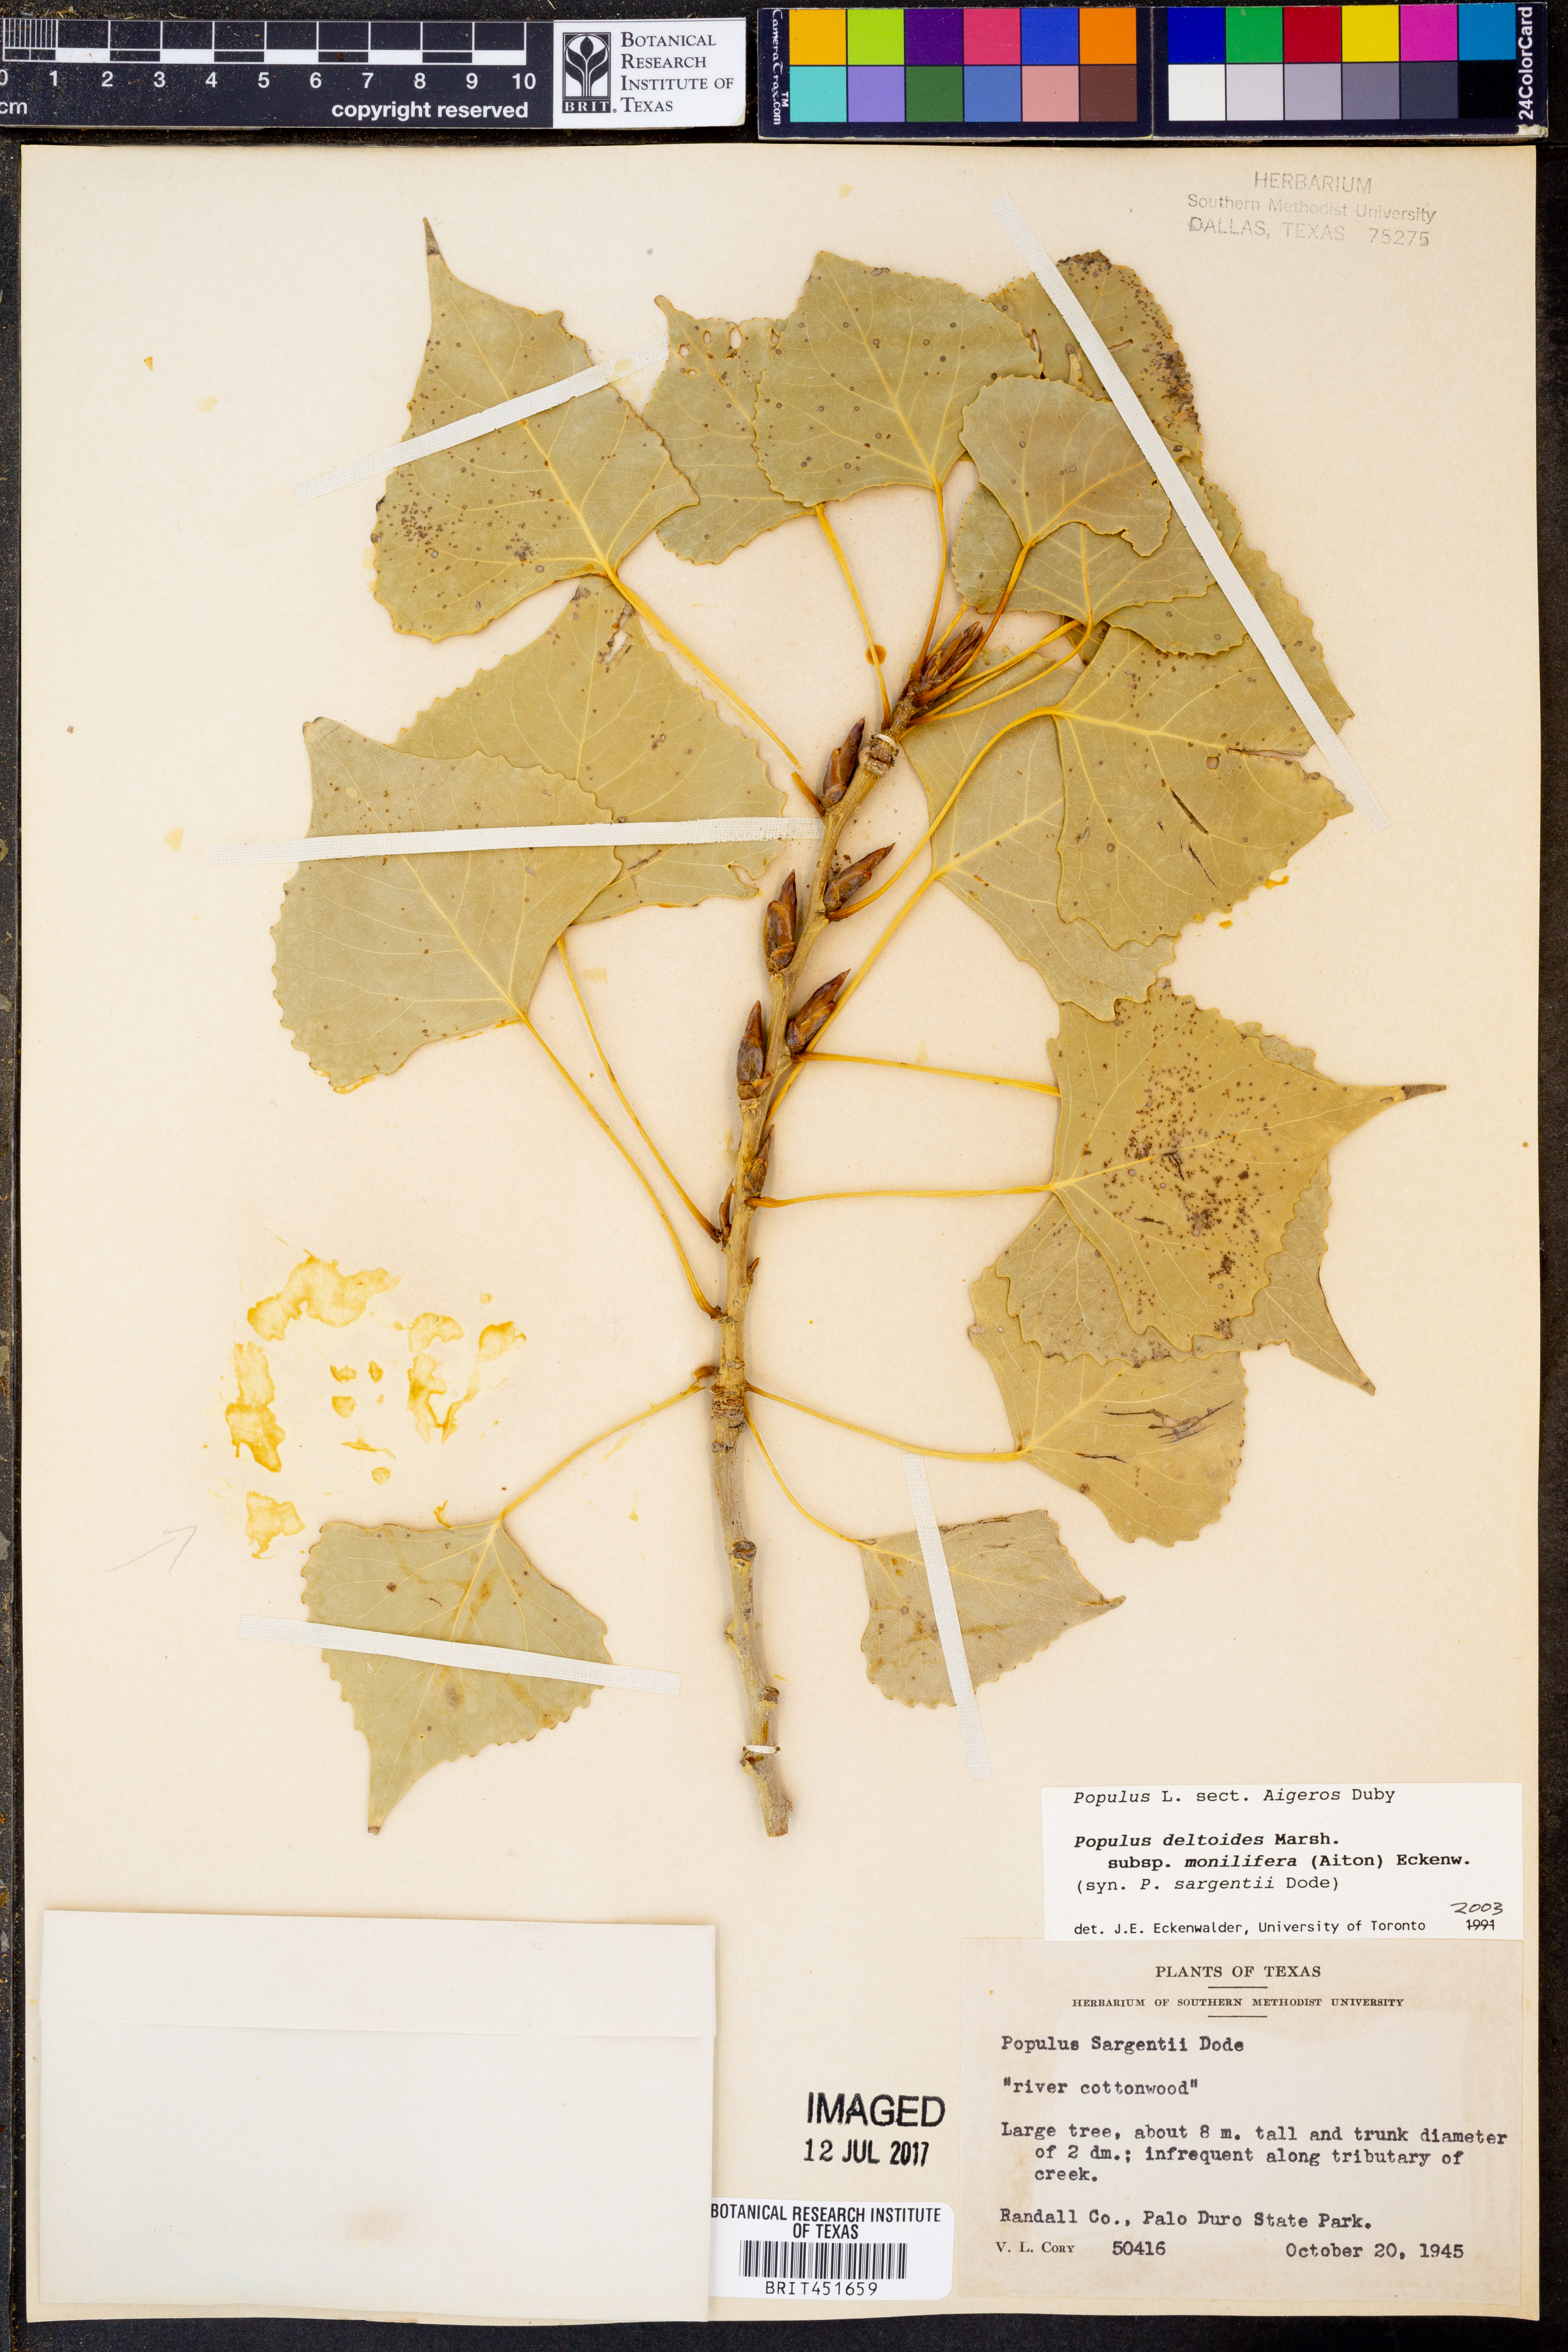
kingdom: Plantae
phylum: Tracheophyta
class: Magnoliopsida
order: Malpighiales
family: Salicaceae
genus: Populus
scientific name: Populus deltoides
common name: Eastern cottonwood
